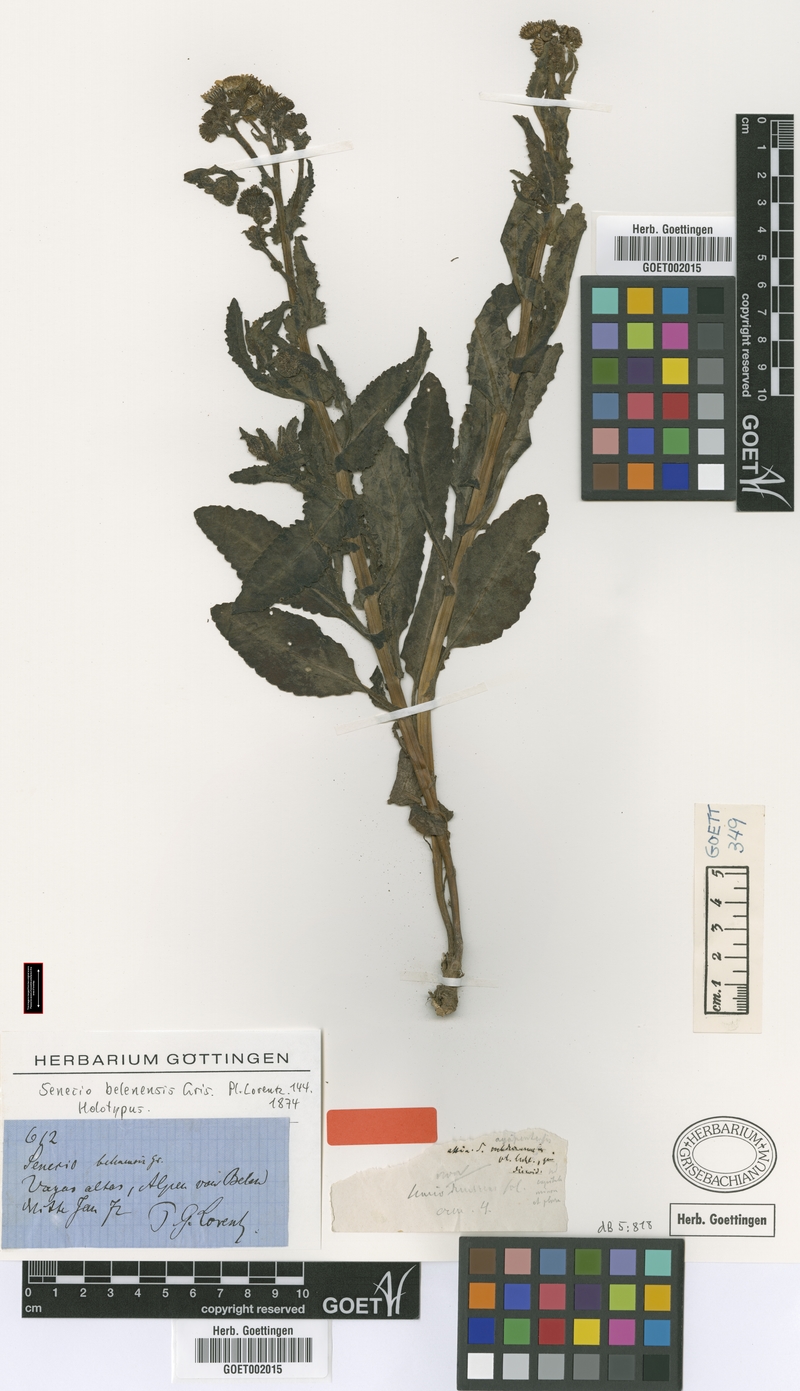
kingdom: Plantae
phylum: Tracheophyta
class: Magnoliopsida
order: Asterales
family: Asteraceae
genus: Senecio
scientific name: Senecio belenensis
